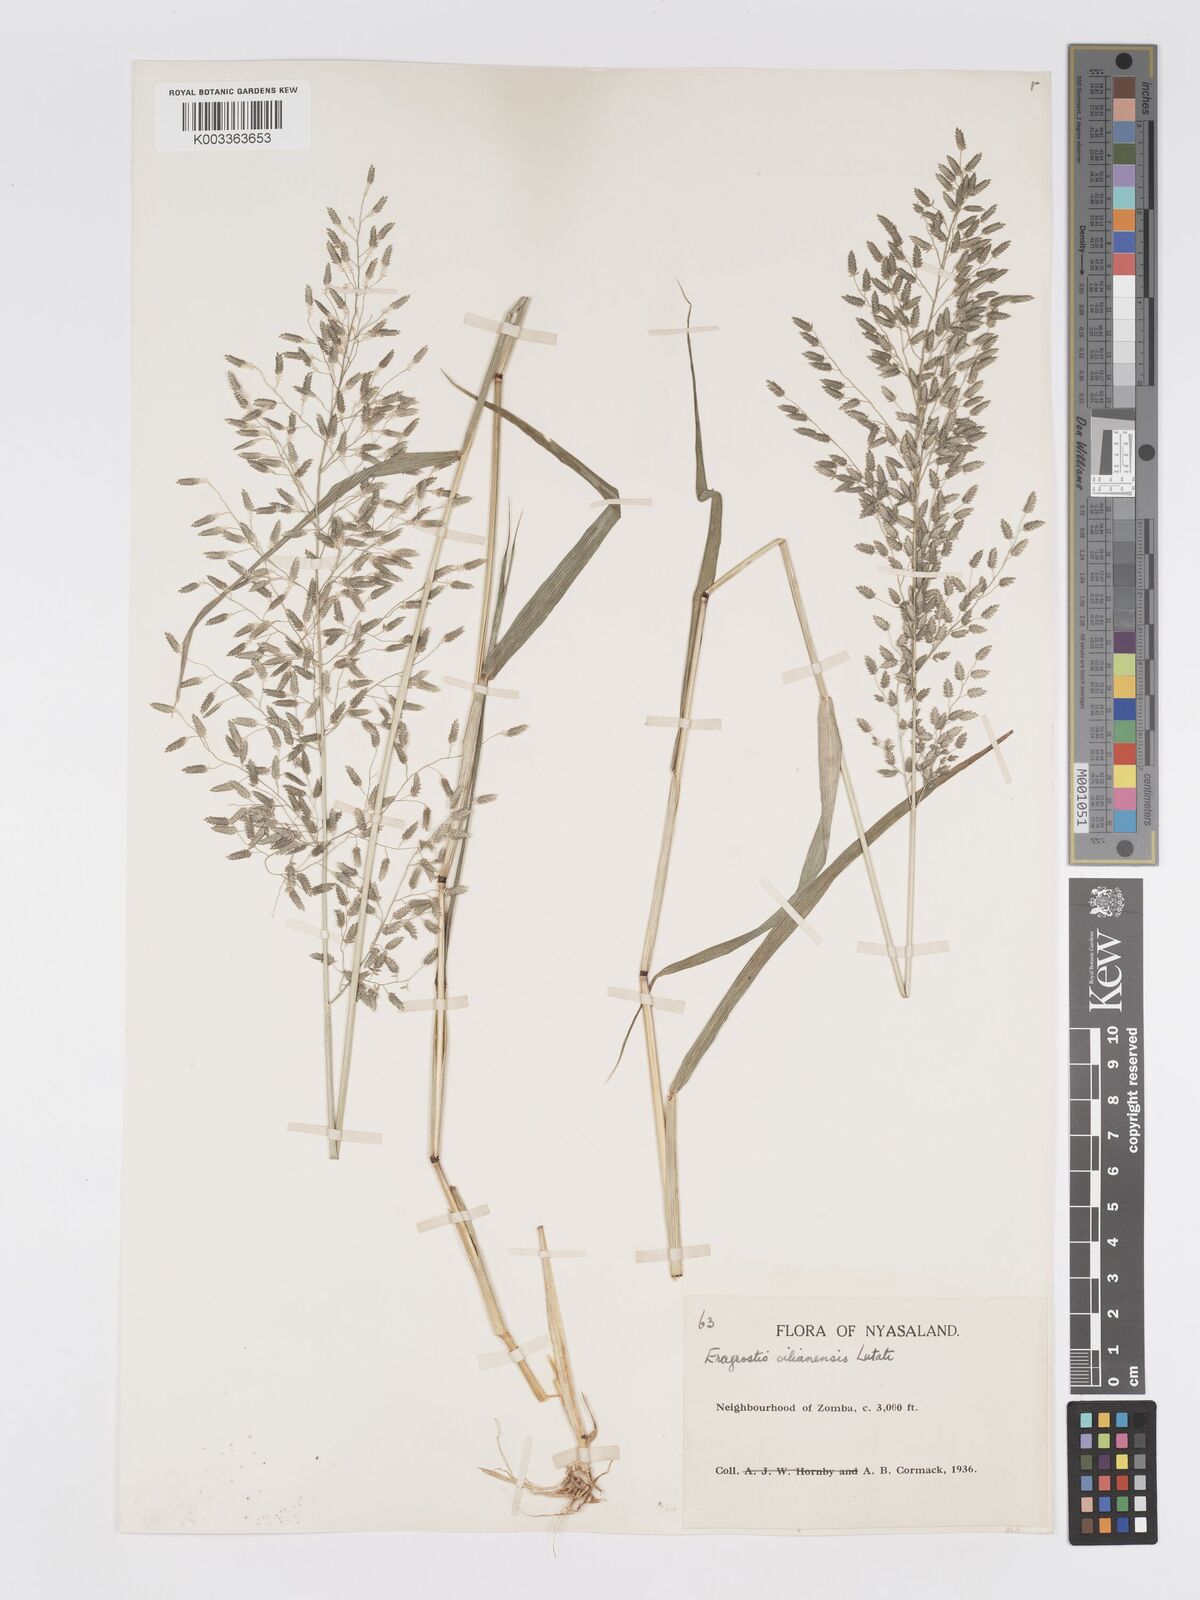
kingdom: Plantae
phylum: Tracheophyta
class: Liliopsida
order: Poales
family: Poaceae
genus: Eragrostis
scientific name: Eragrostis cilianensis
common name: Stinkgrass
